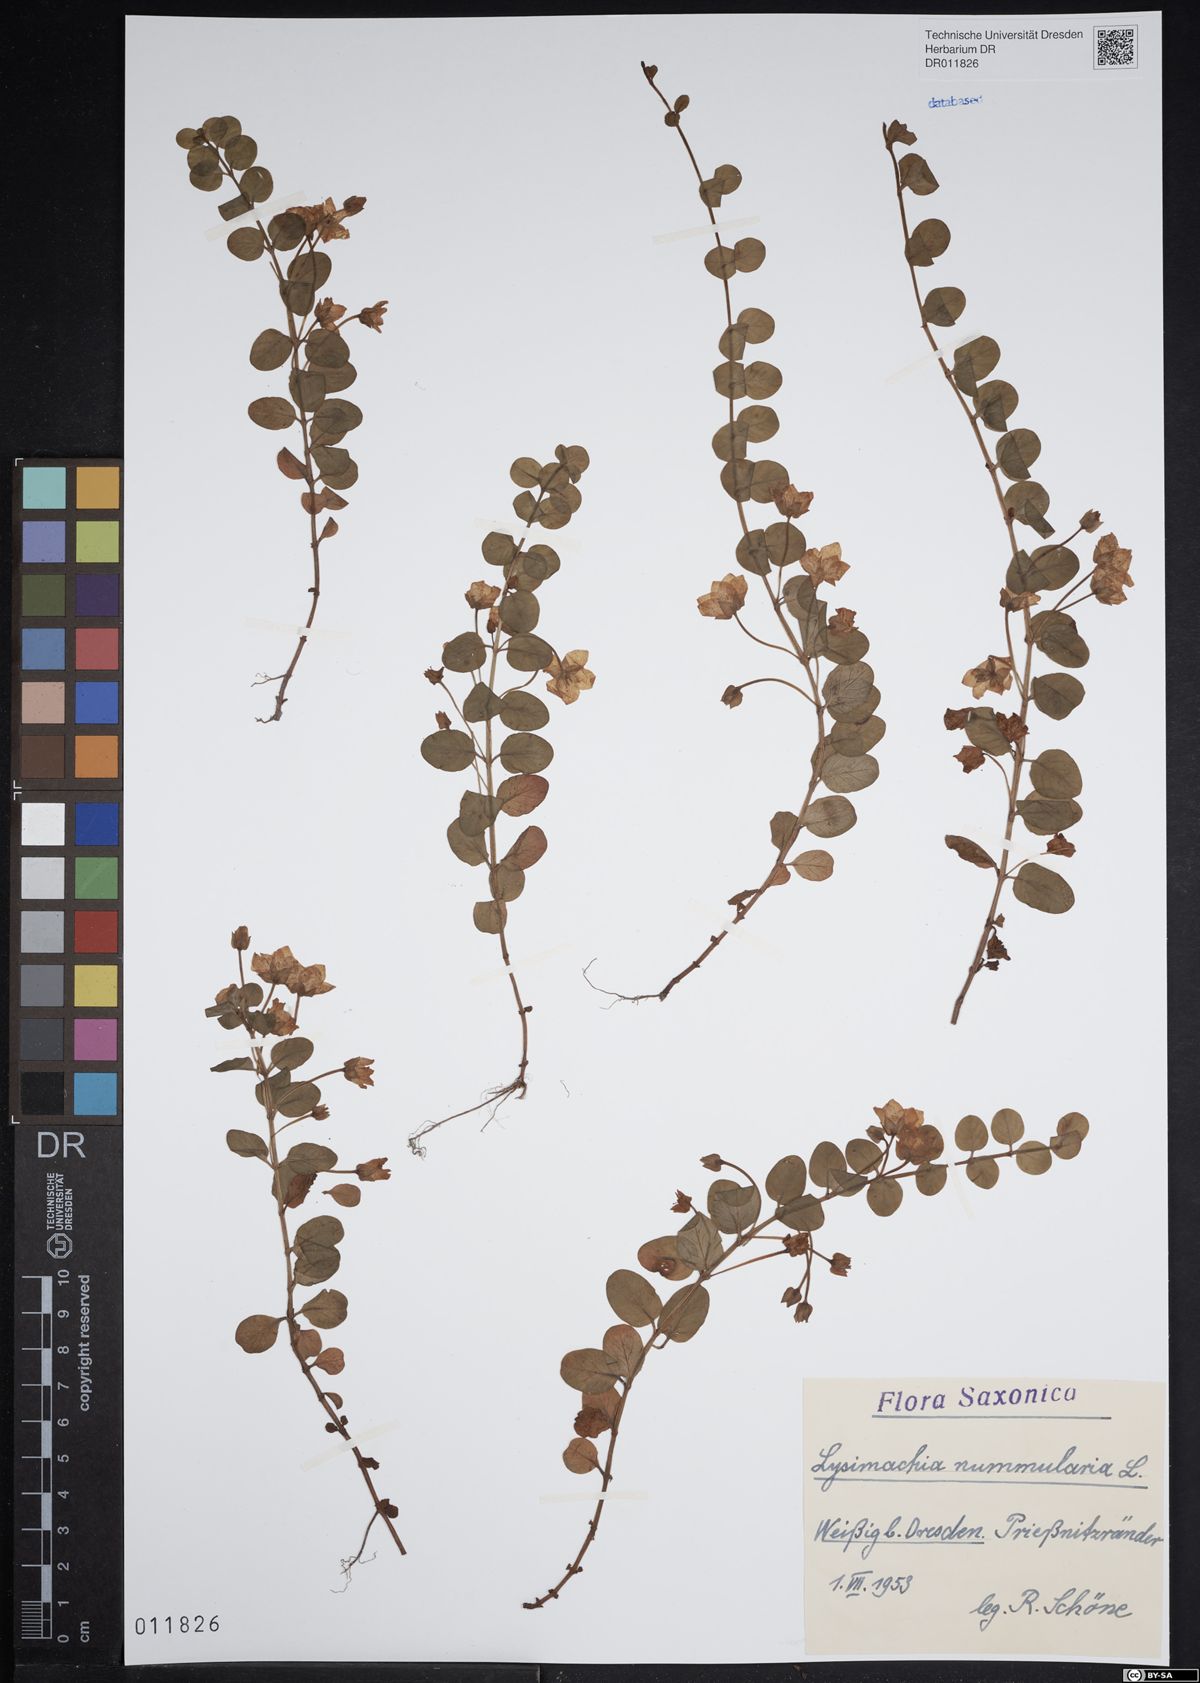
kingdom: Plantae
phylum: Tracheophyta
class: Magnoliopsida
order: Ericales
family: Primulaceae
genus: Lysimachia
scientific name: Lysimachia nummularia
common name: Moneywort
